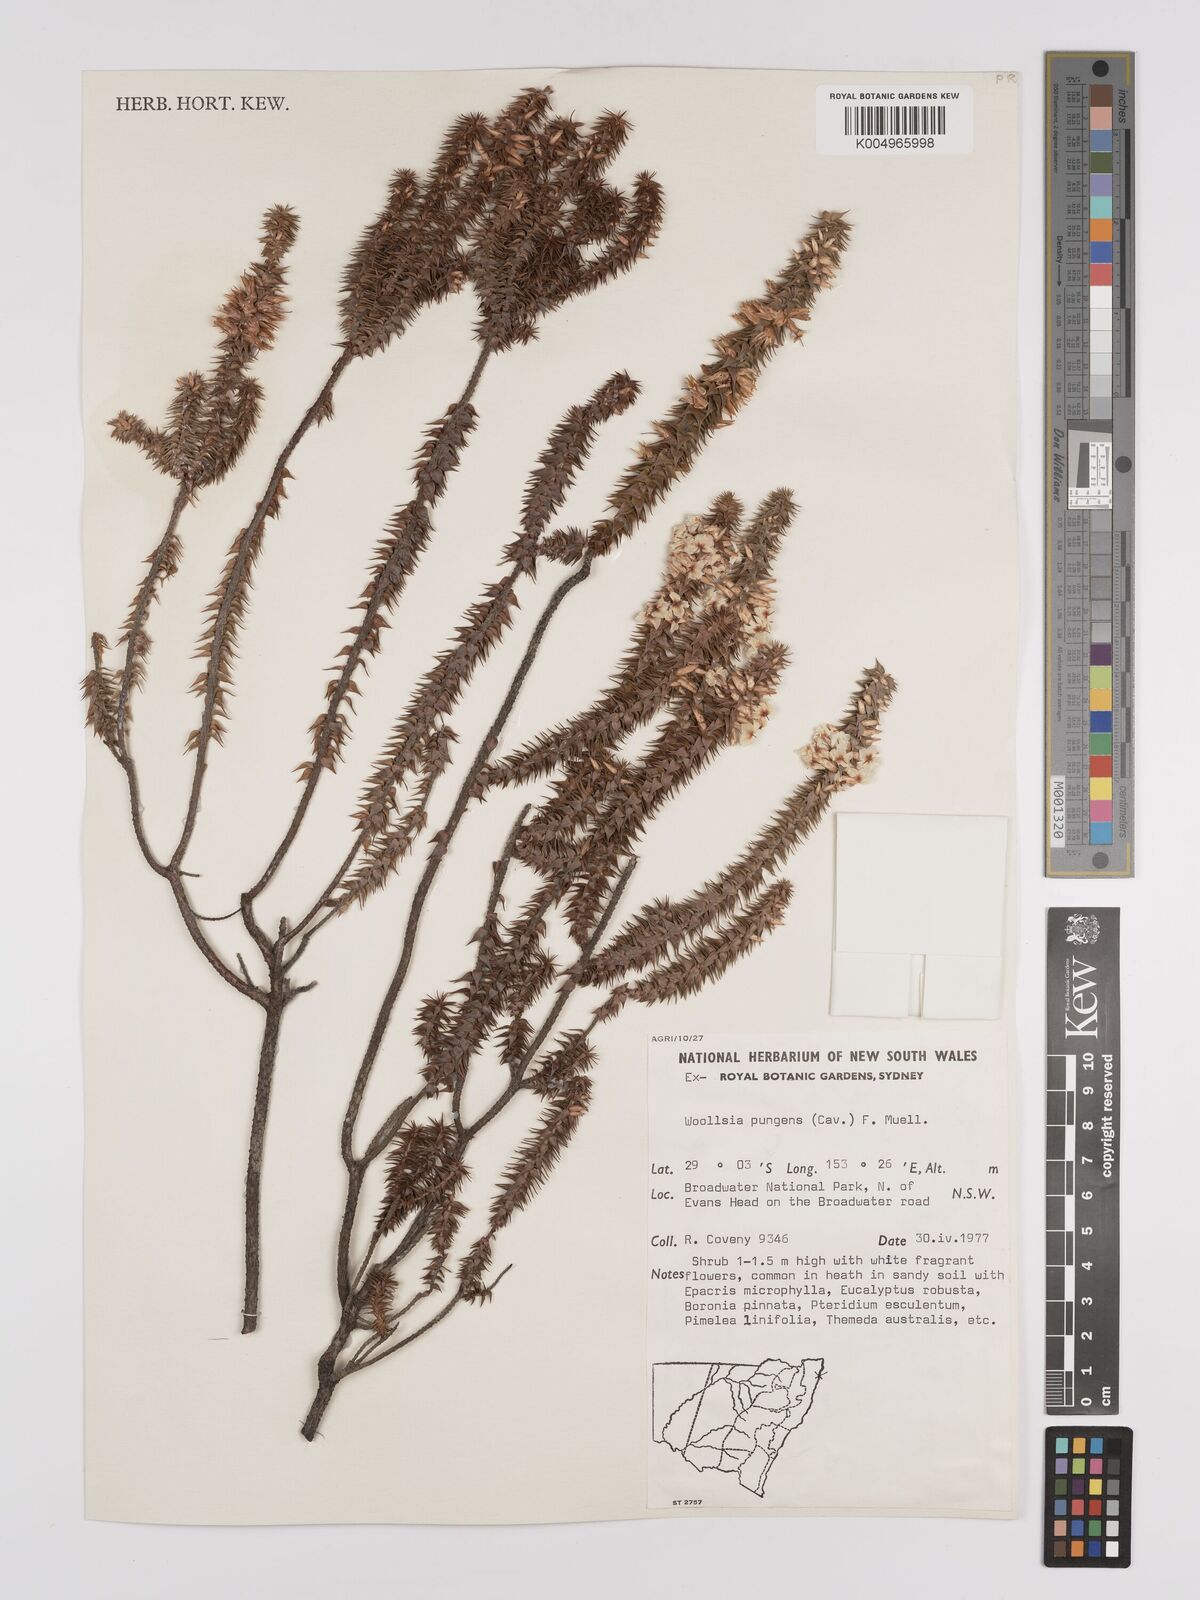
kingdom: Plantae
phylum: Tracheophyta
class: Magnoliopsida
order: Ericales
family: Ericaceae
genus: Woollsia
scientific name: Woollsia pungens
